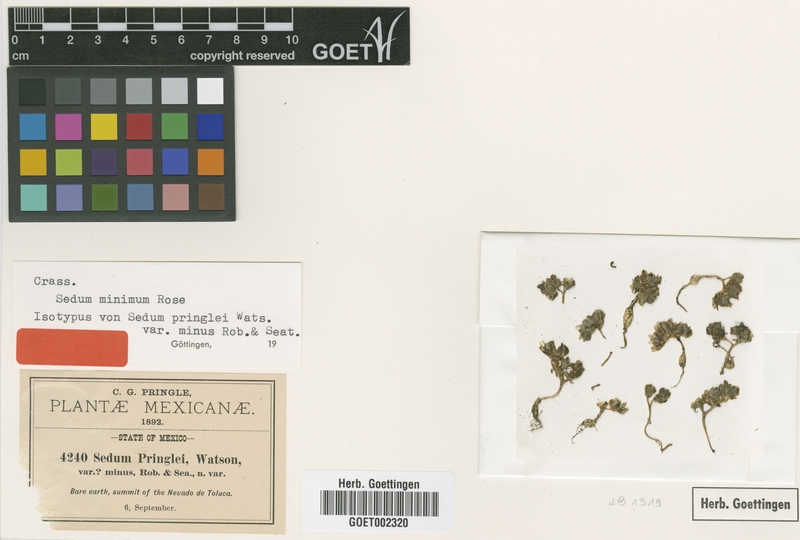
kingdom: Plantae
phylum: Tracheophyta
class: Magnoliopsida
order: Saxifragales
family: Crassulaceae
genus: Sedum
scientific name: Sedum minimum
